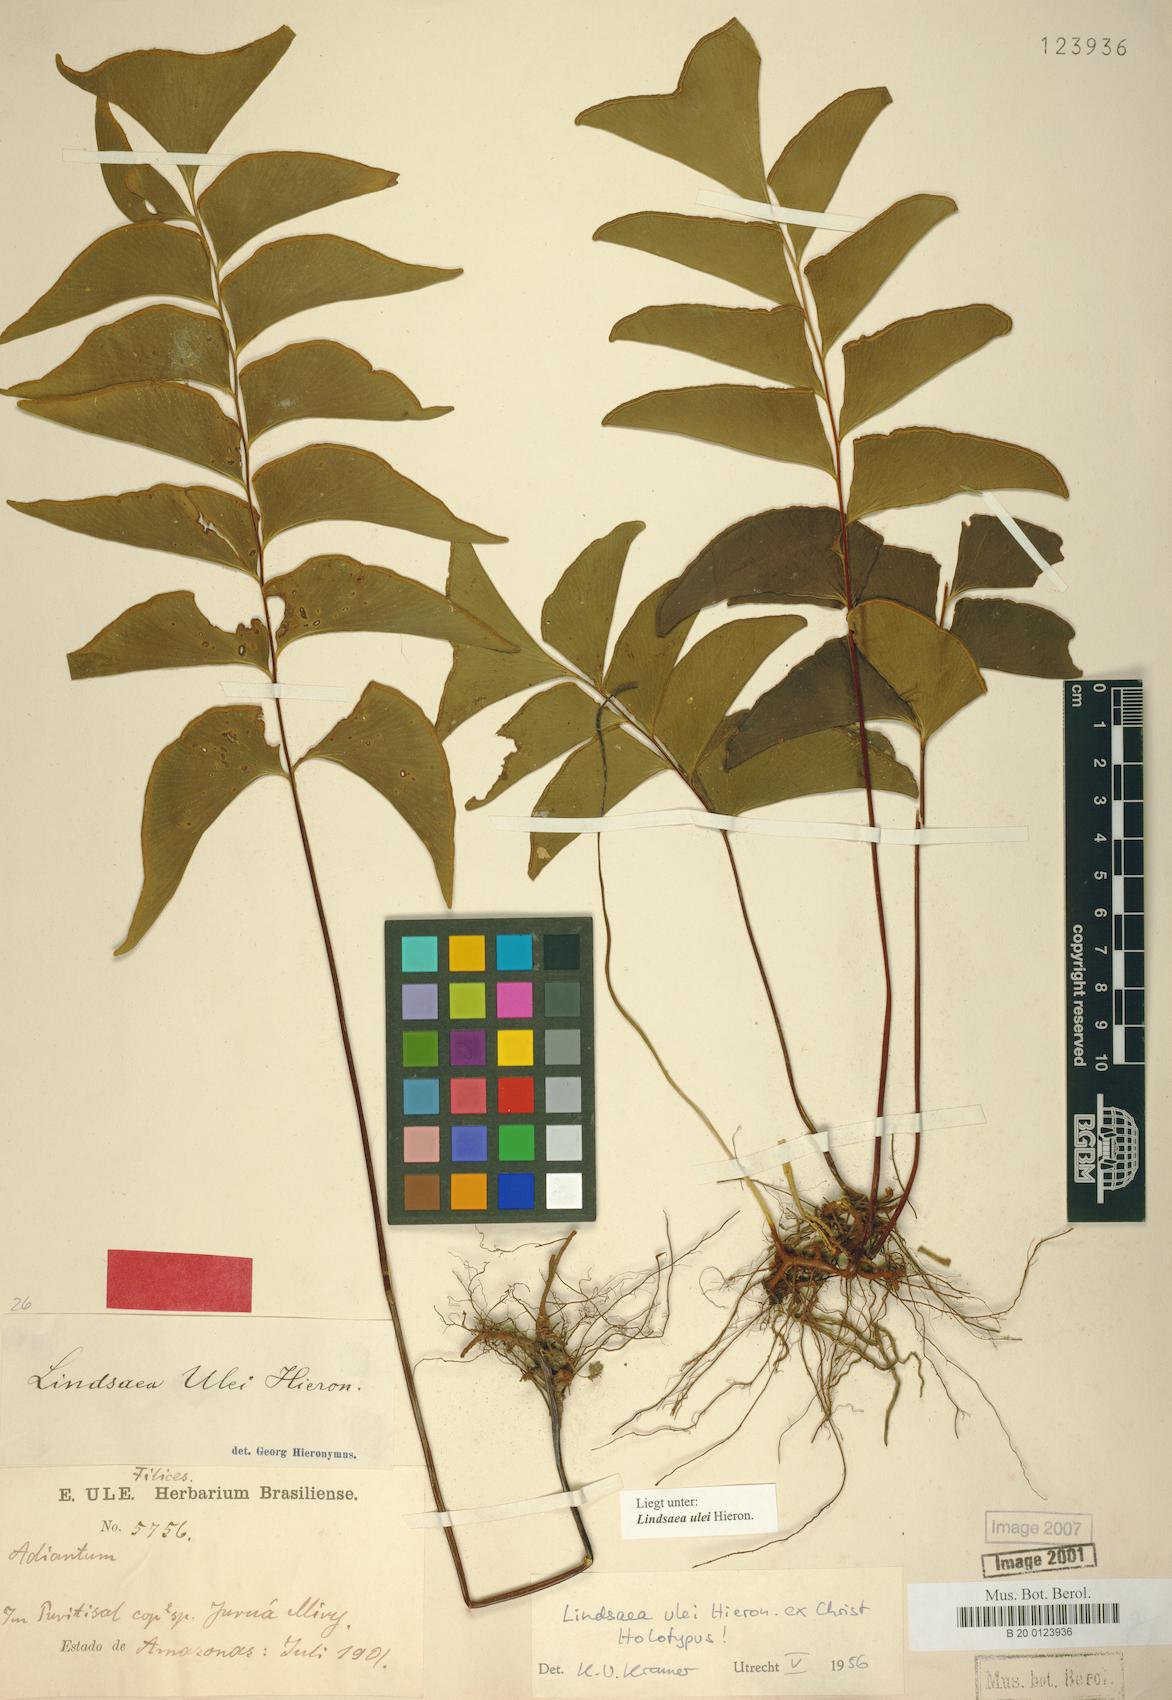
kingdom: Plantae
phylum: Tracheophyta
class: Polypodiopsida
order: Polypodiales
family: Lindsaeaceae
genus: Lindsaea
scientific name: Lindsaea ulei
